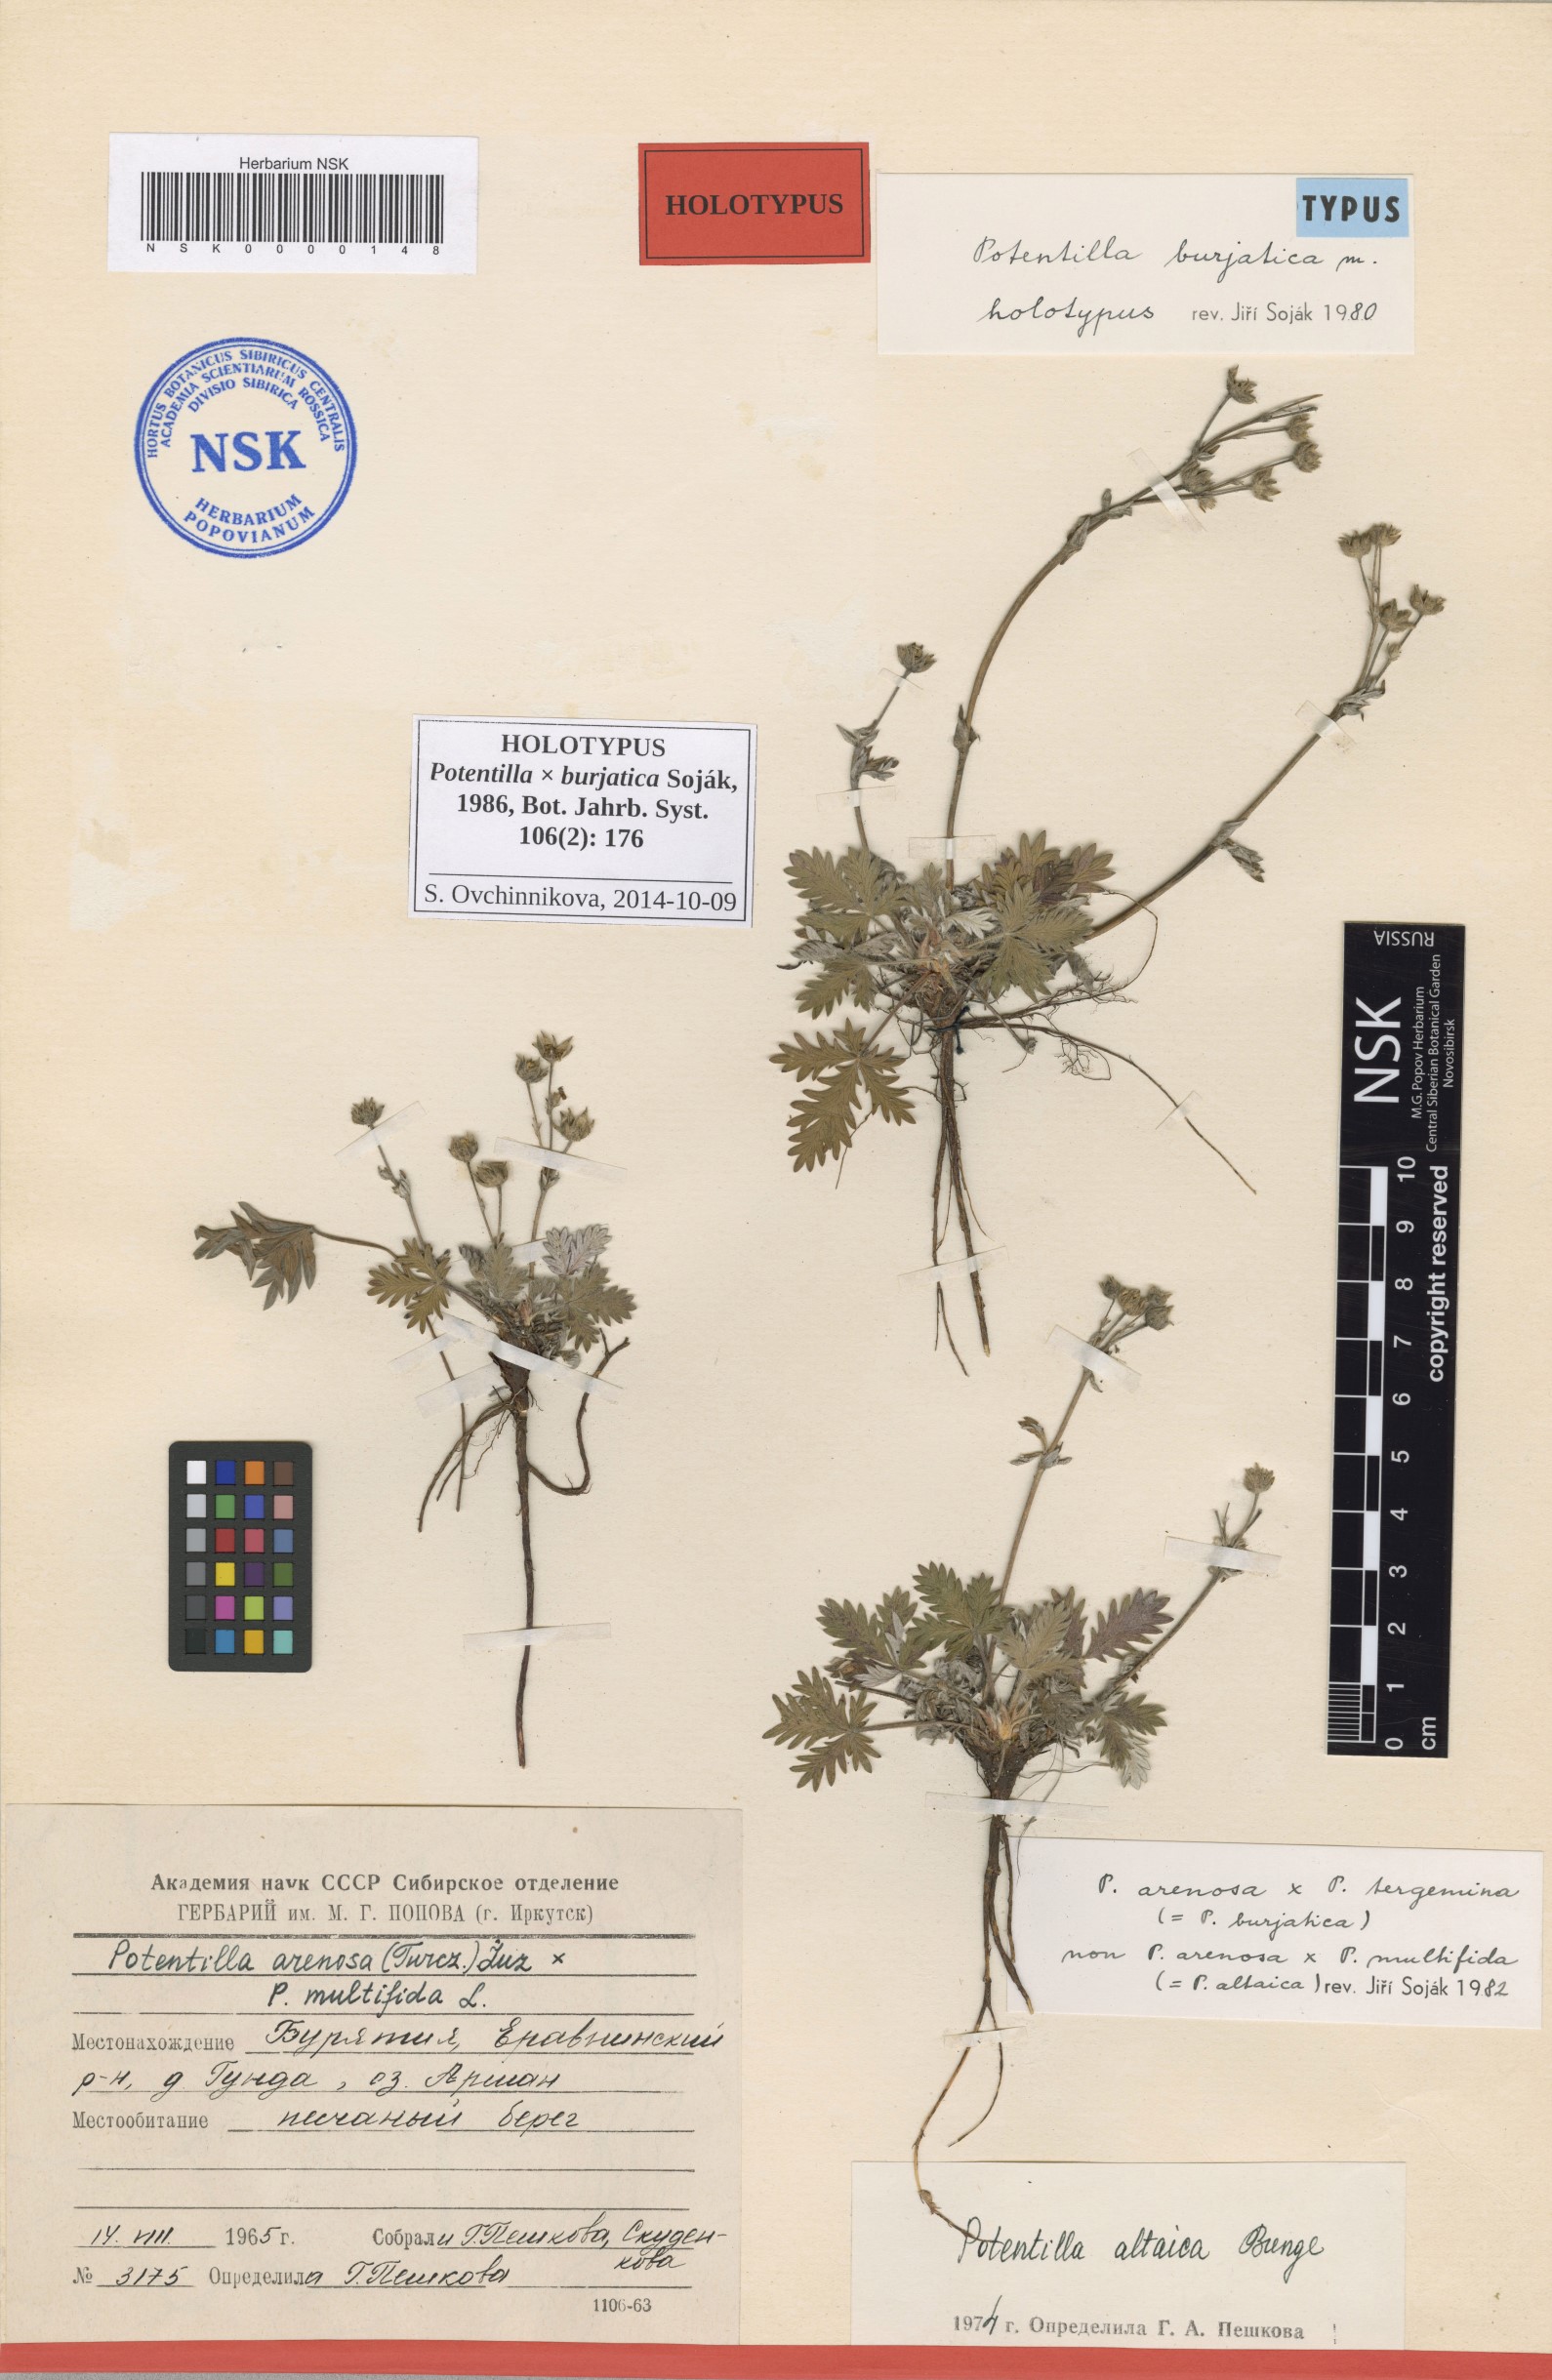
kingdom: Plantae
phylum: Tracheophyta
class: Magnoliopsida
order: Rosales
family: Rosaceae
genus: Potentilla
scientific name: Potentilla burjatica
